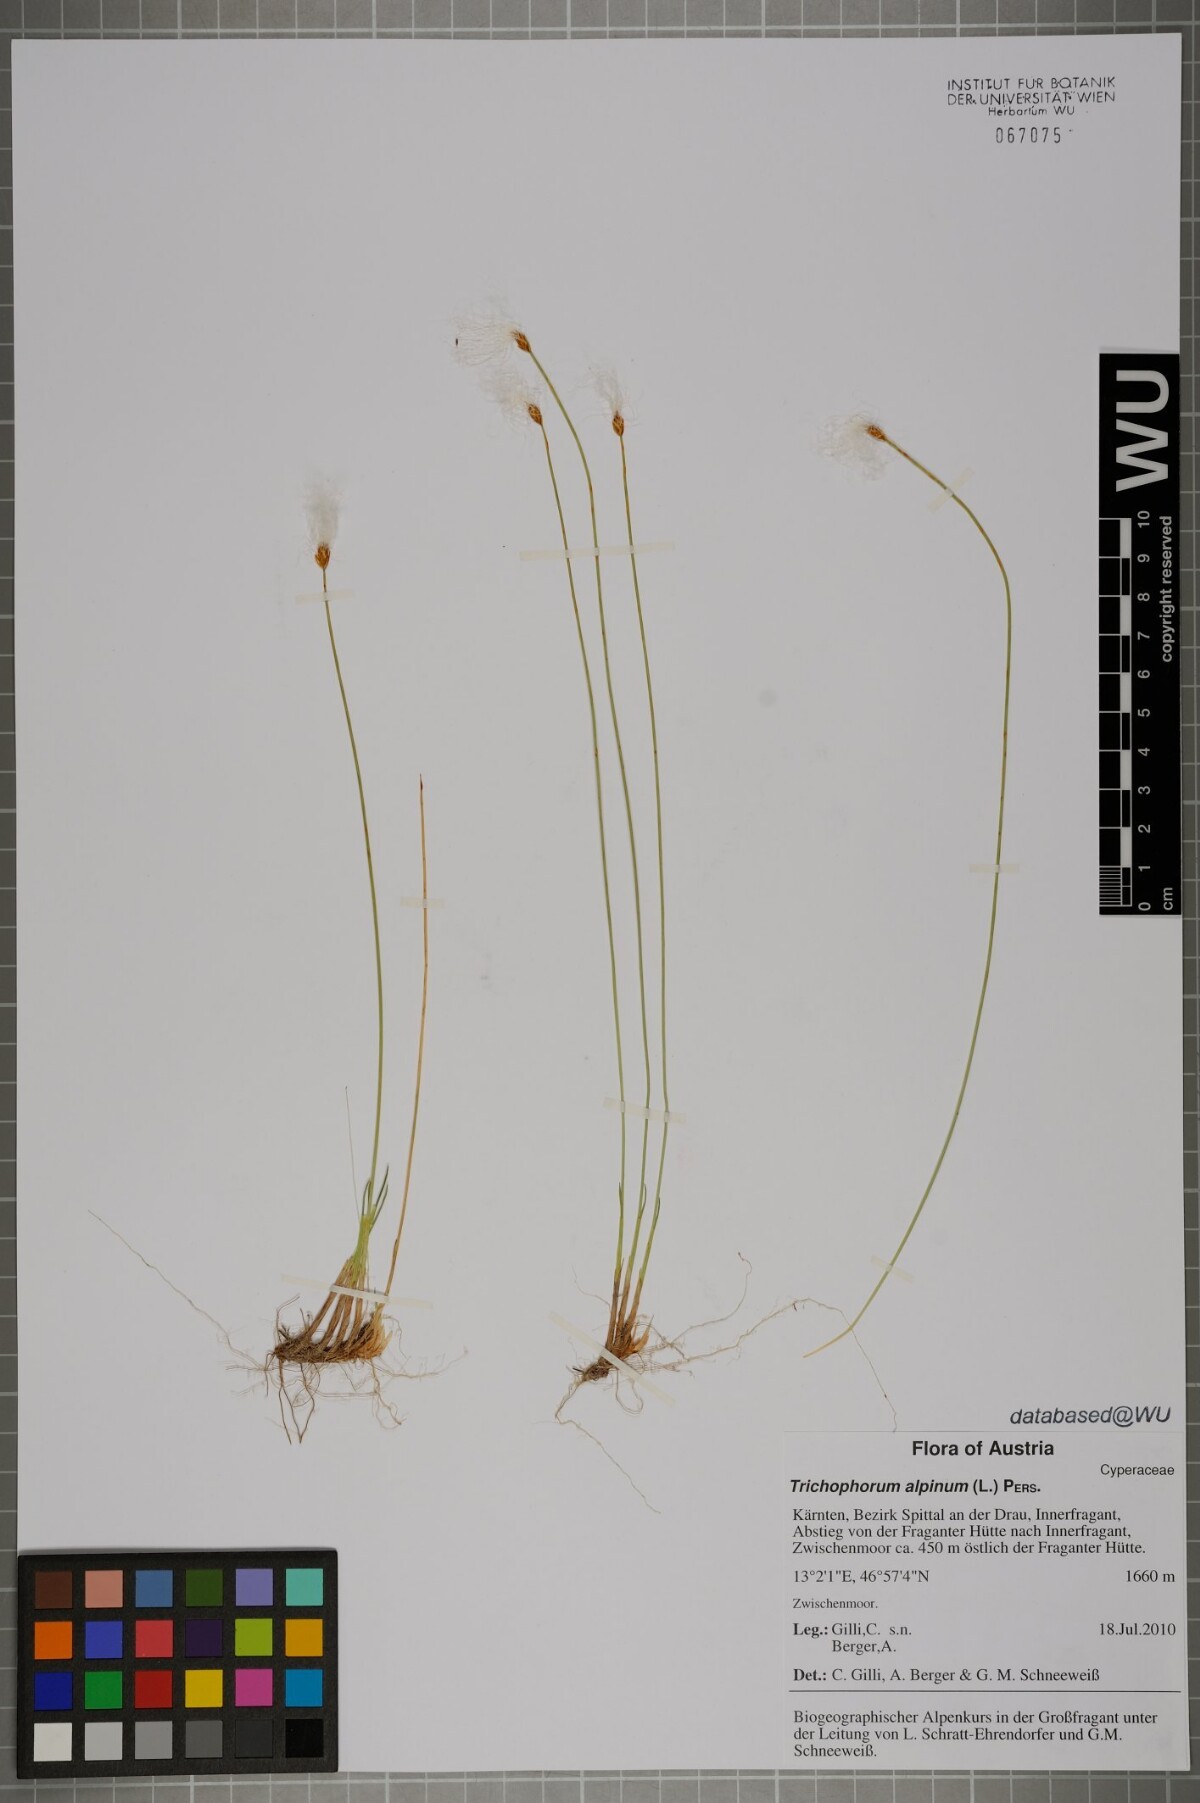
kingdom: Plantae
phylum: Tracheophyta
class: Liliopsida
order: Poales
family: Cyperaceae
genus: Trichophorum
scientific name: Trichophorum alpinum
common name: Alpine bulrush
